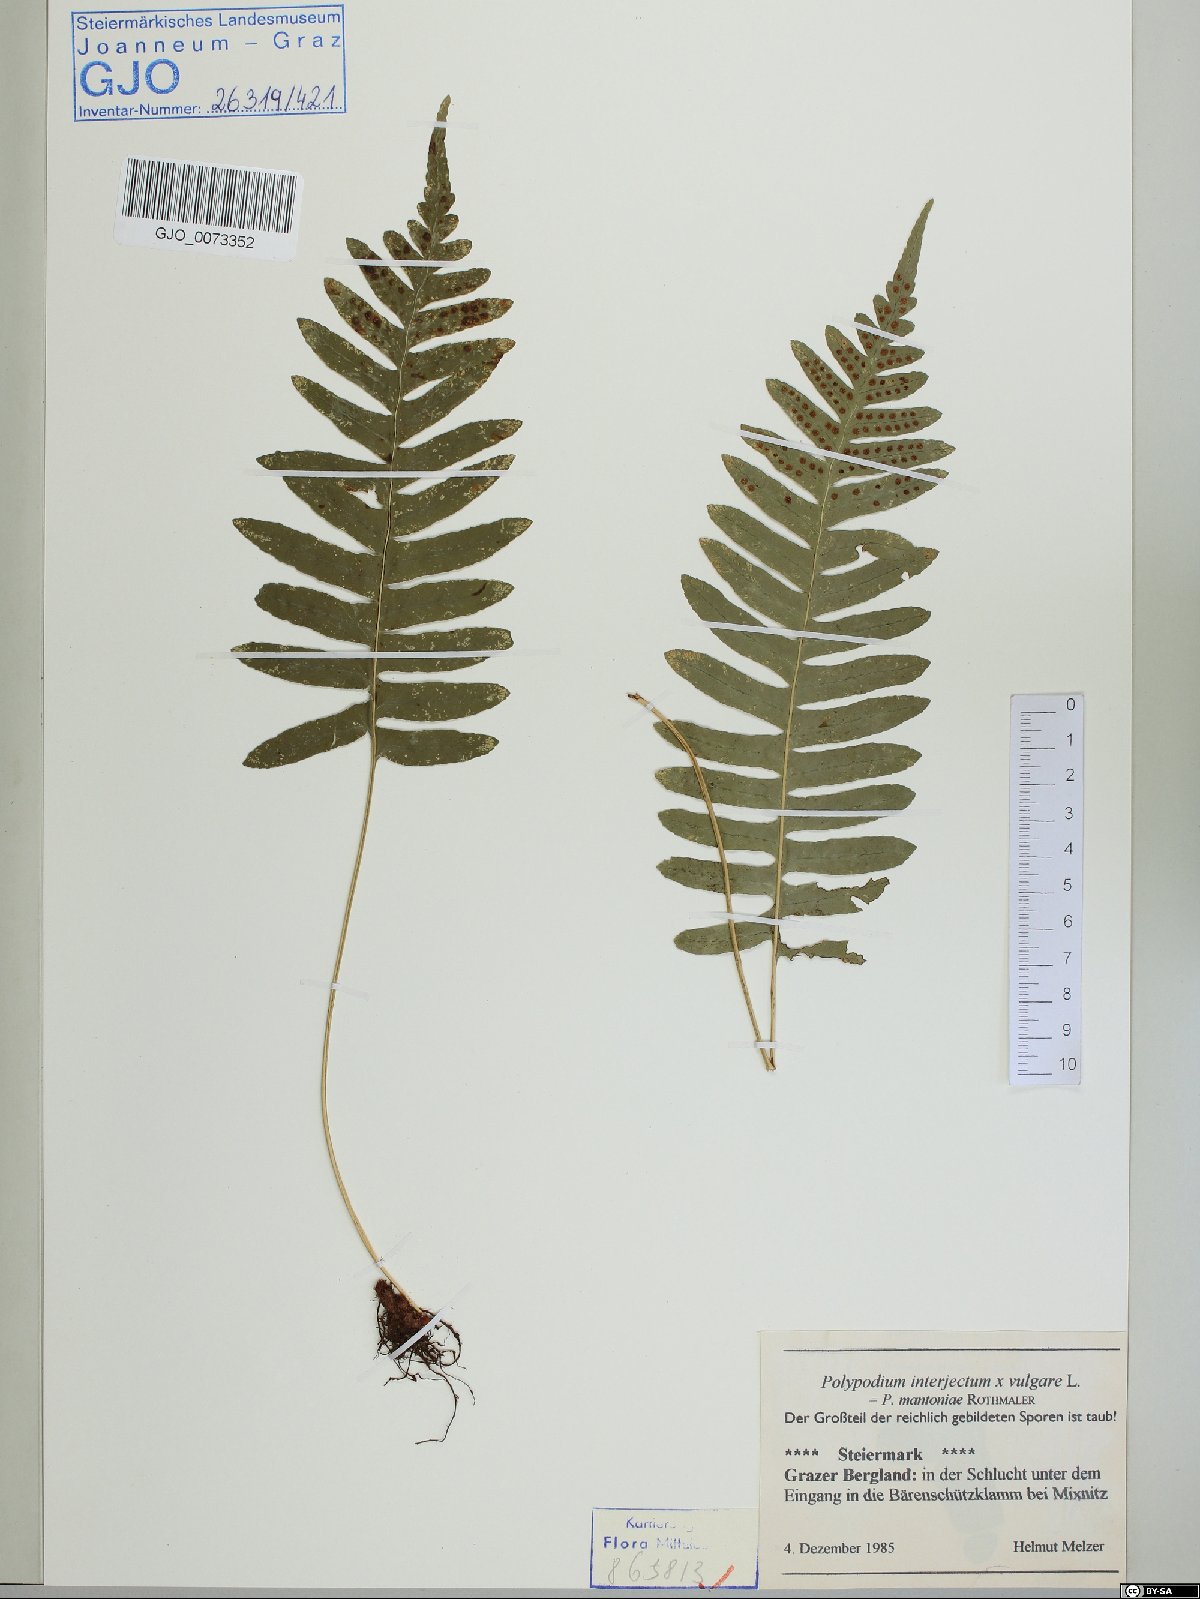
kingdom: Plantae
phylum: Tracheophyta
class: Polypodiopsida
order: Polypodiales
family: Polypodiaceae
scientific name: Polypodiaceae
